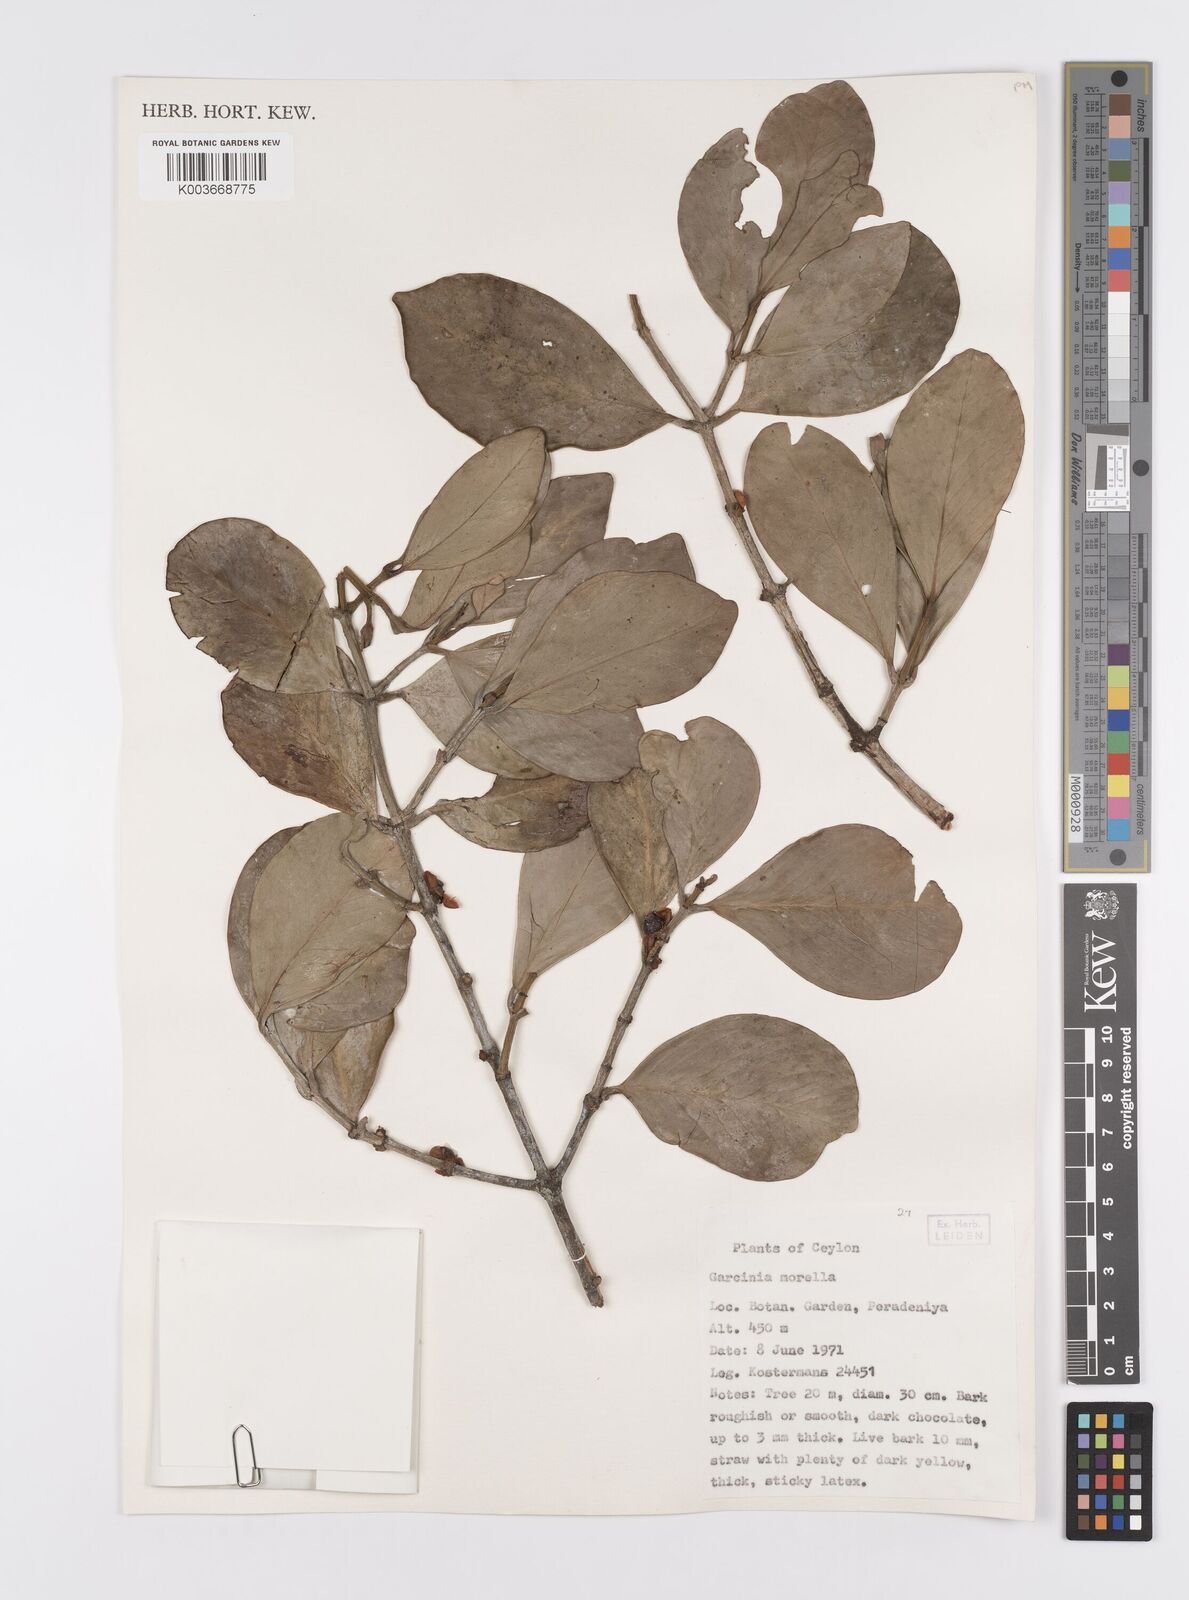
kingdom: Plantae
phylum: Tracheophyta
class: Magnoliopsida
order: Malpighiales
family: Clusiaceae
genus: Garcinia
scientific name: Garcinia morella
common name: Indian gamboge-tree
